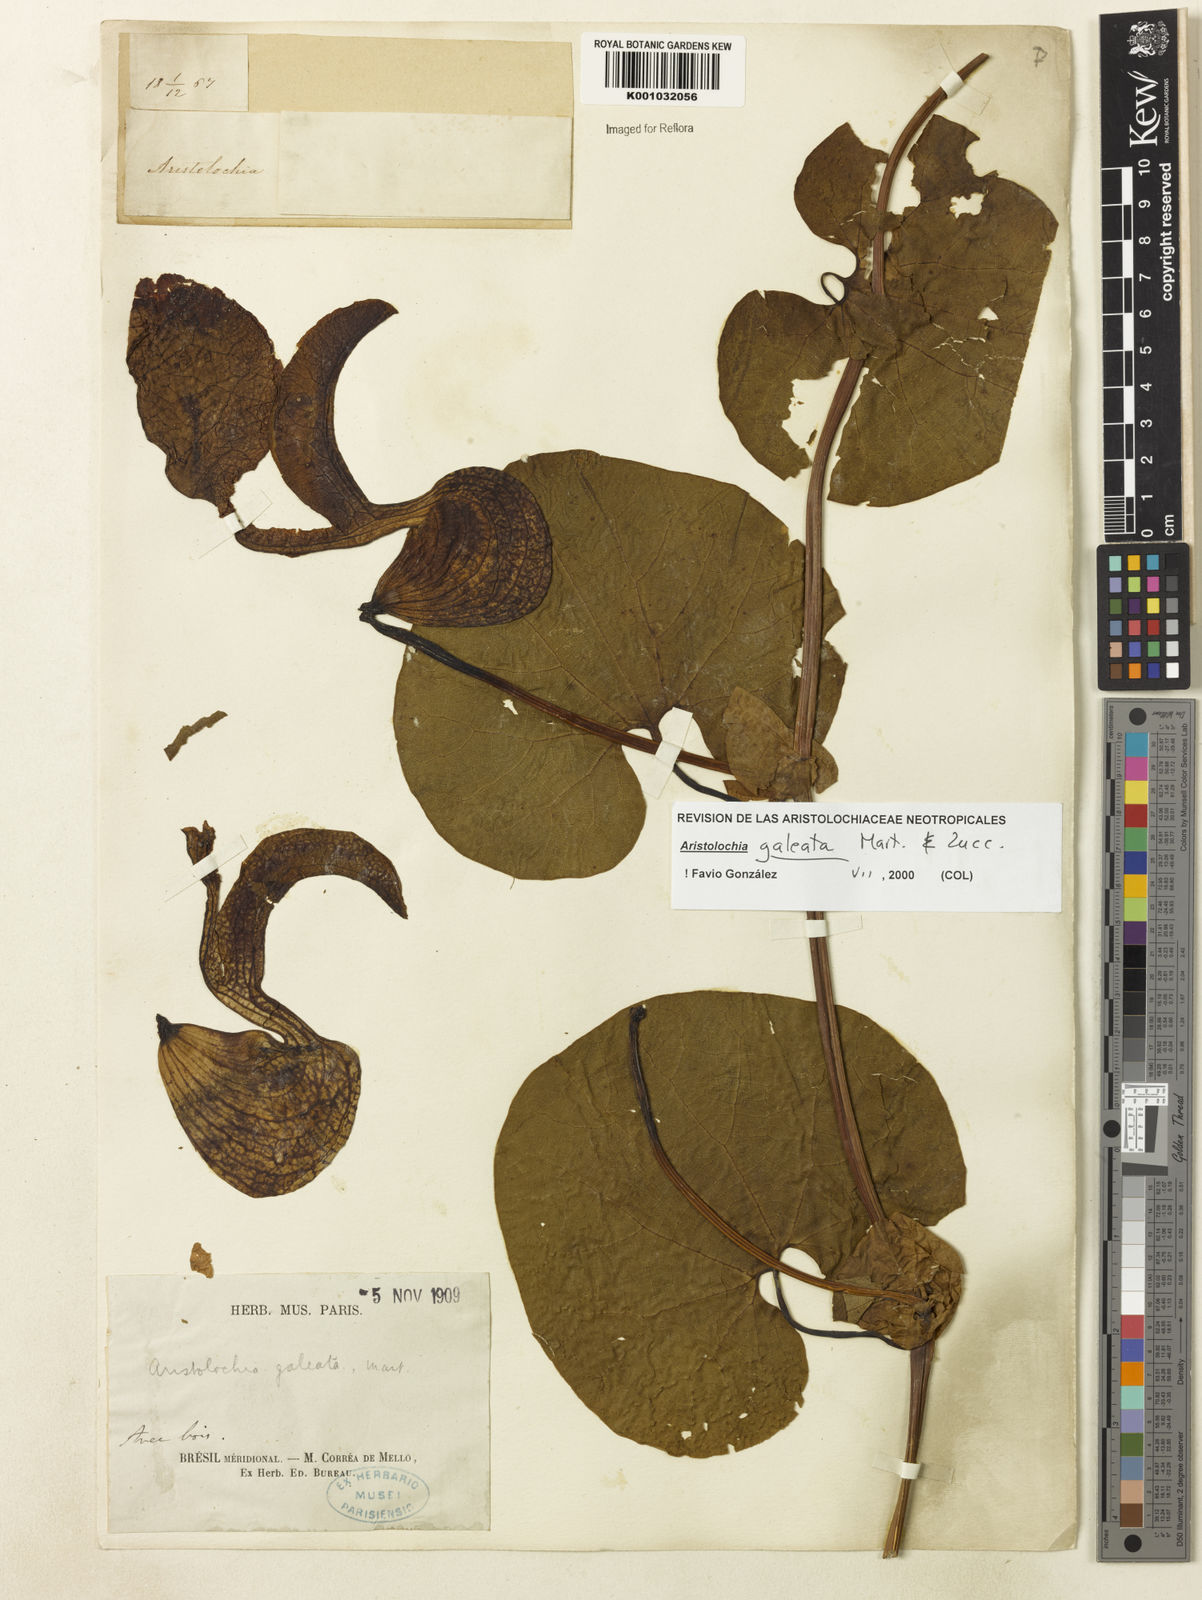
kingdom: Plantae
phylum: Tracheophyta
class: Magnoliopsida
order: Piperales
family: Aristolochiaceae
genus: Aristolochia
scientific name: Aristolochia
